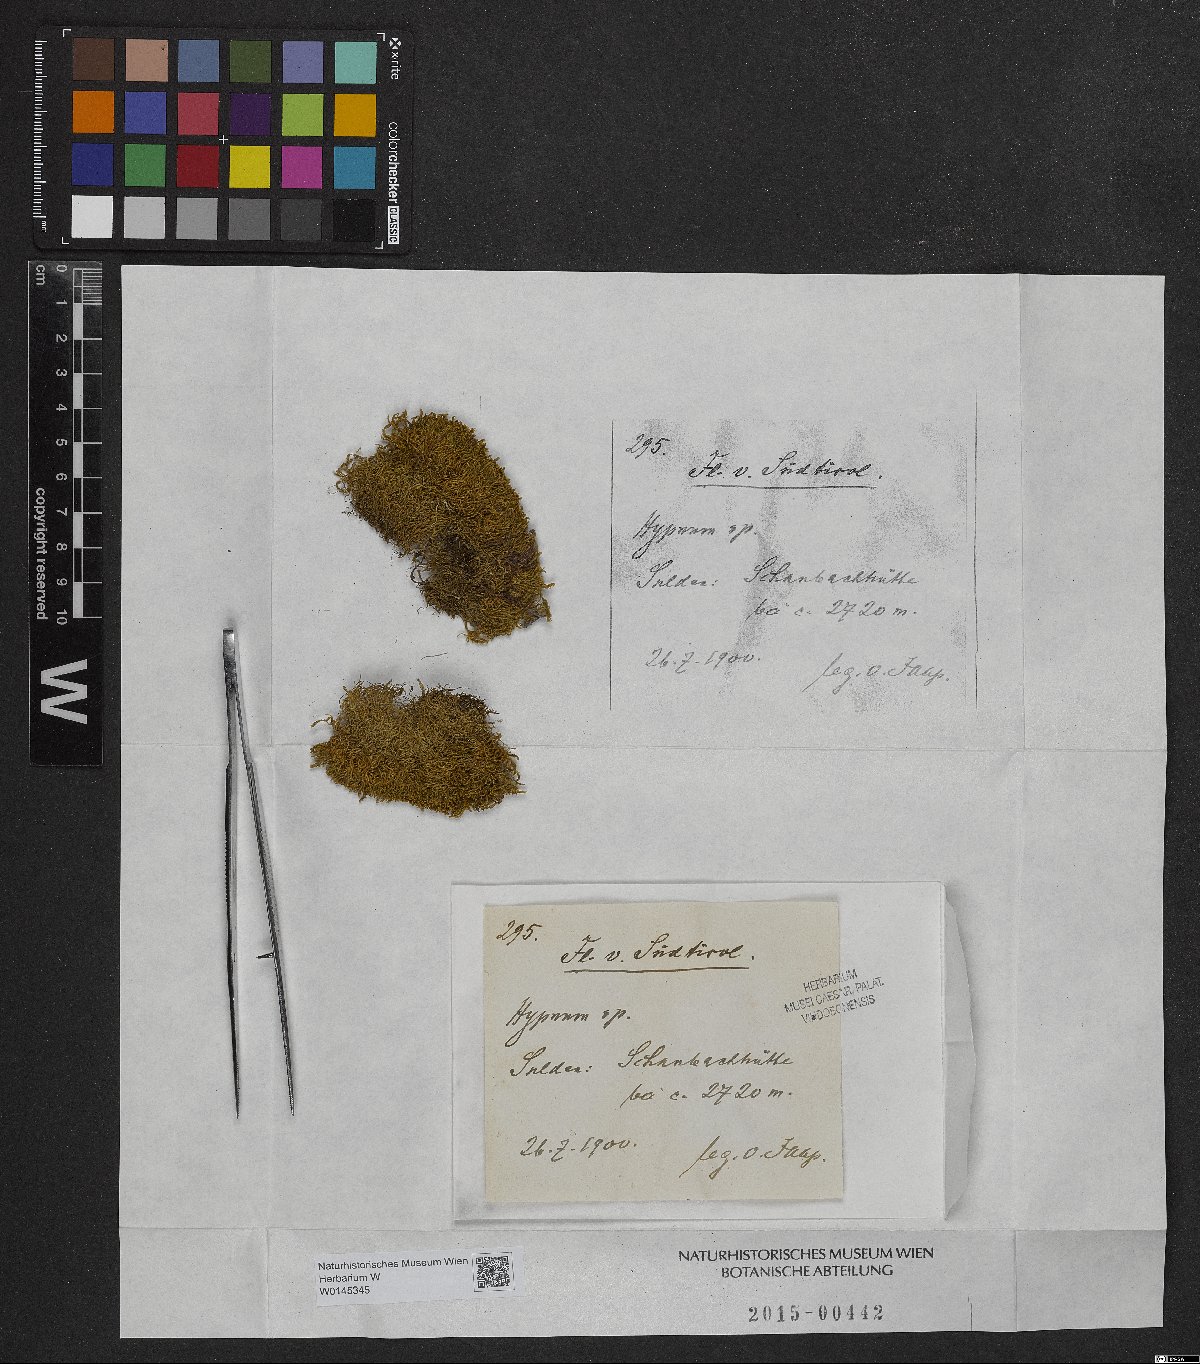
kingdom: Plantae
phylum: Bryophyta
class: Bryopsida
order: Hypnales
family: Hypnaceae
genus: Hypnum
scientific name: Hypnum
